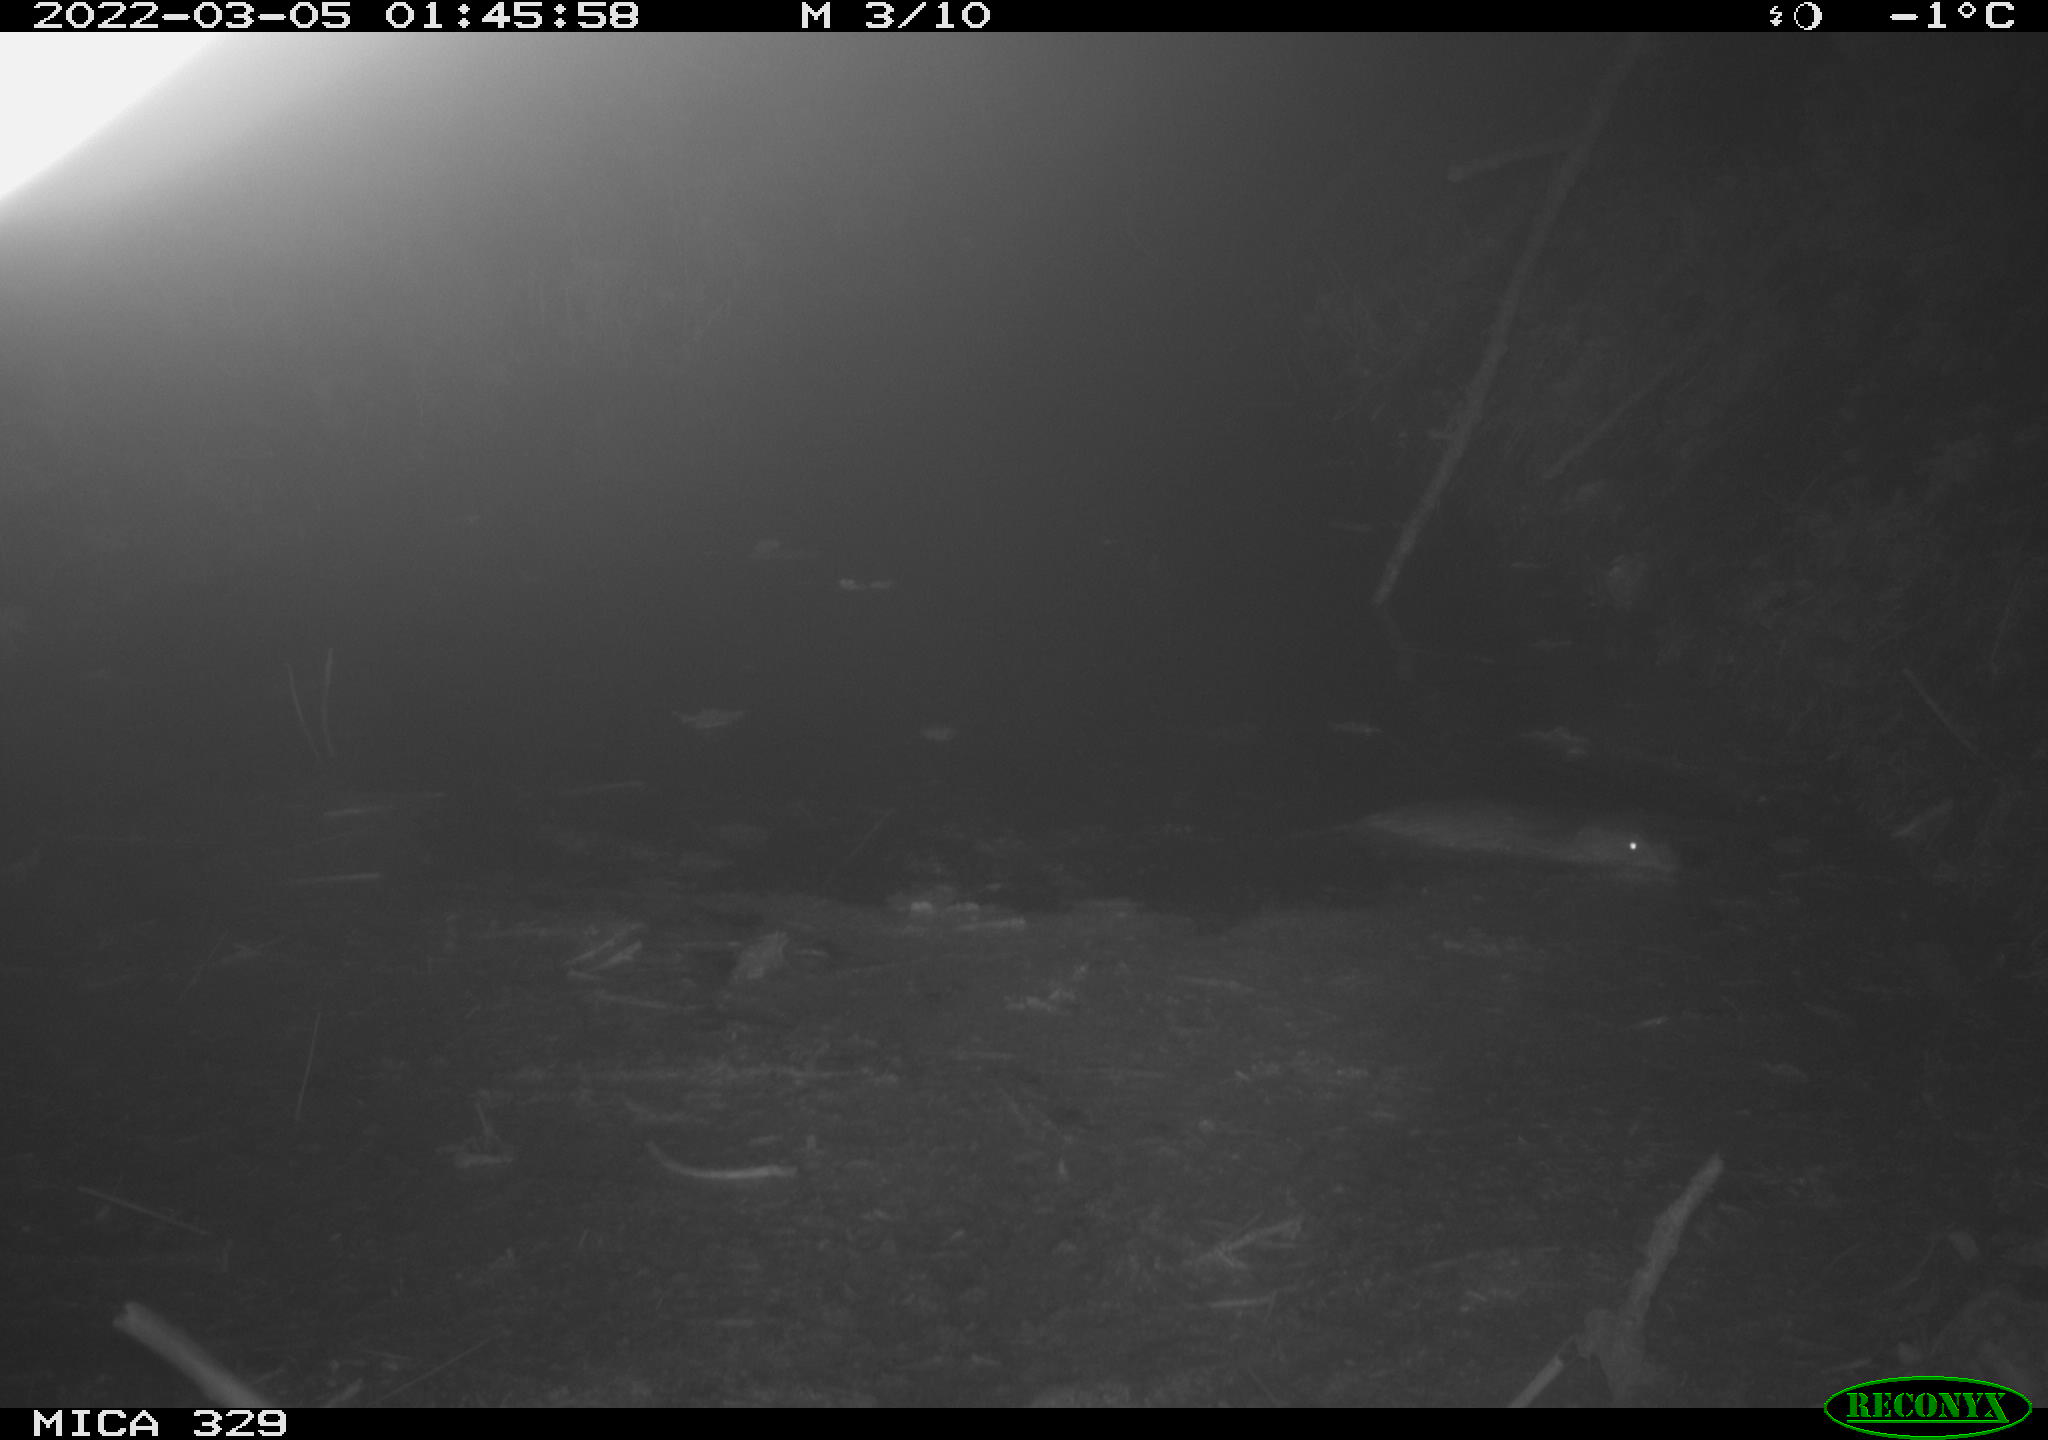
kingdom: Animalia
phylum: Chordata
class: Mammalia
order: Rodentia
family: Cricetidae
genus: Ondatra
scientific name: Ondatra zibethicus
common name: Muskrat
